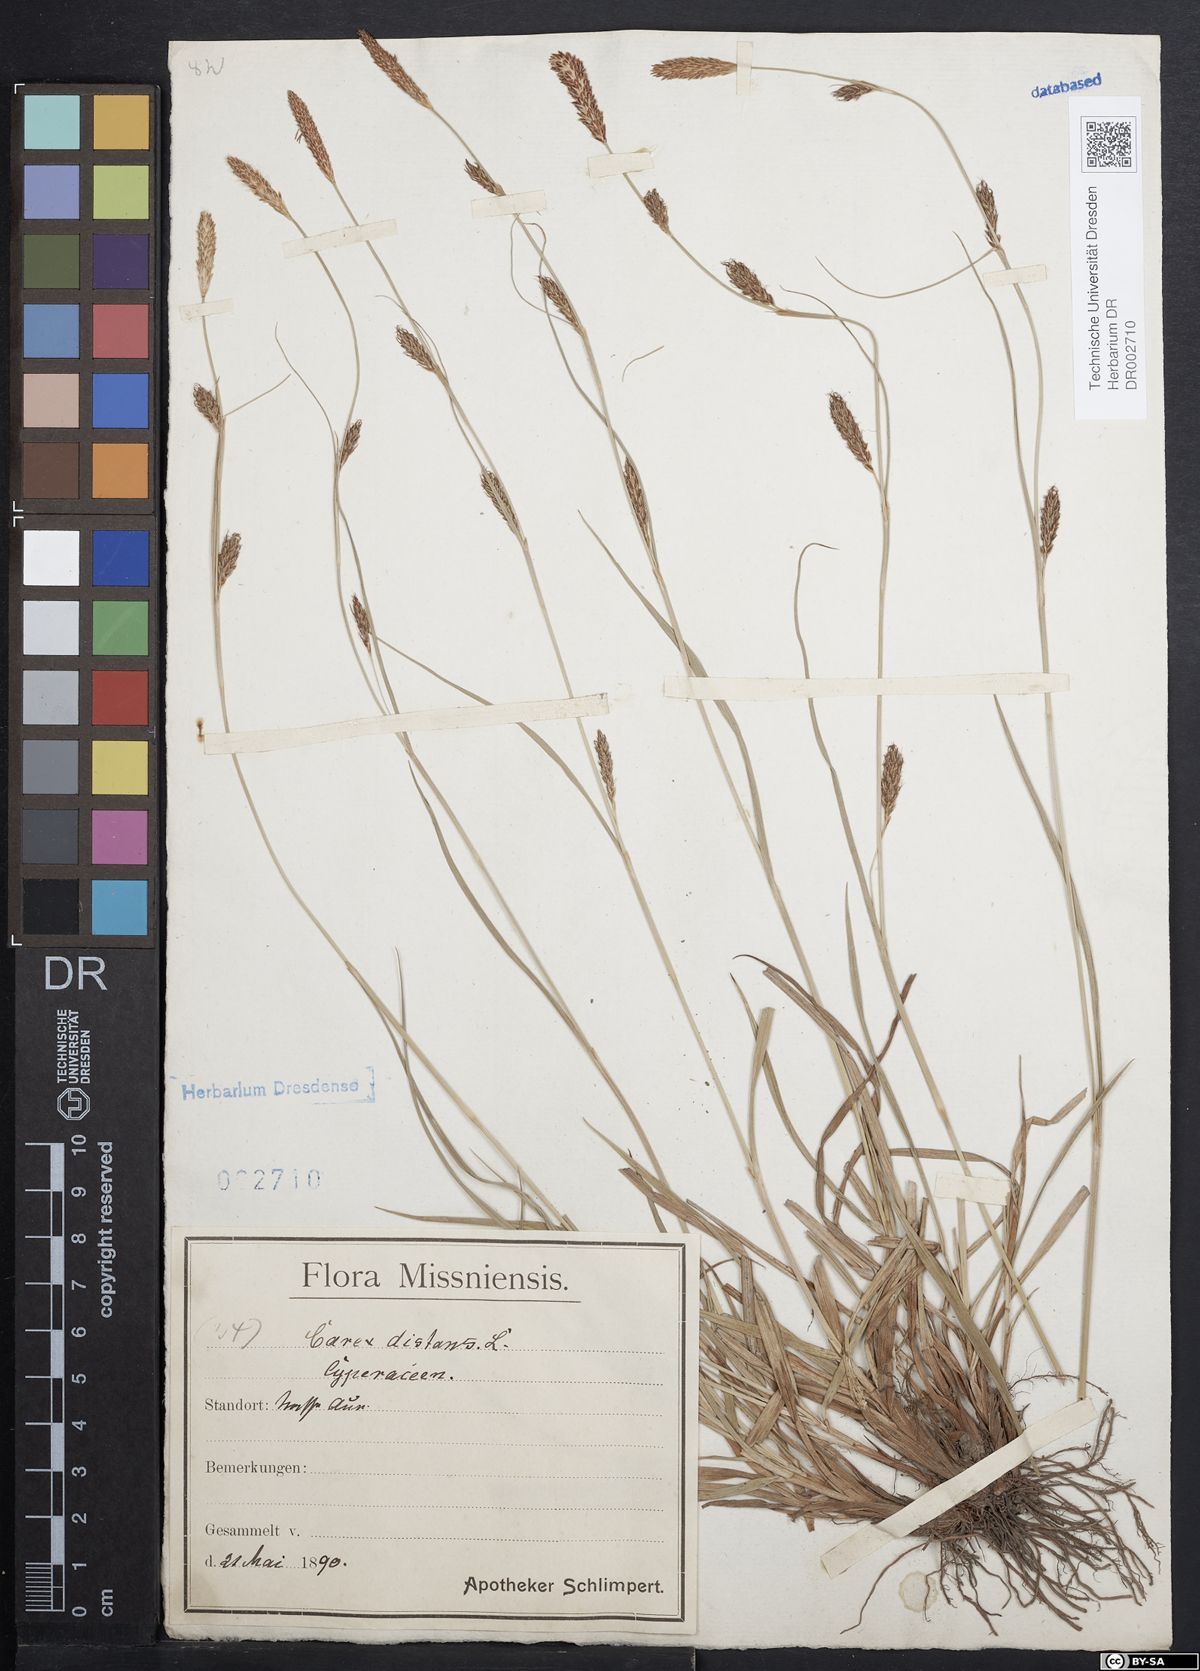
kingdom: Plantae
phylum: Tracheophyta
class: Liliopsida
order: Poales
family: Cyperaceae
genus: Carex
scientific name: Carex distans
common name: Distant sedge
